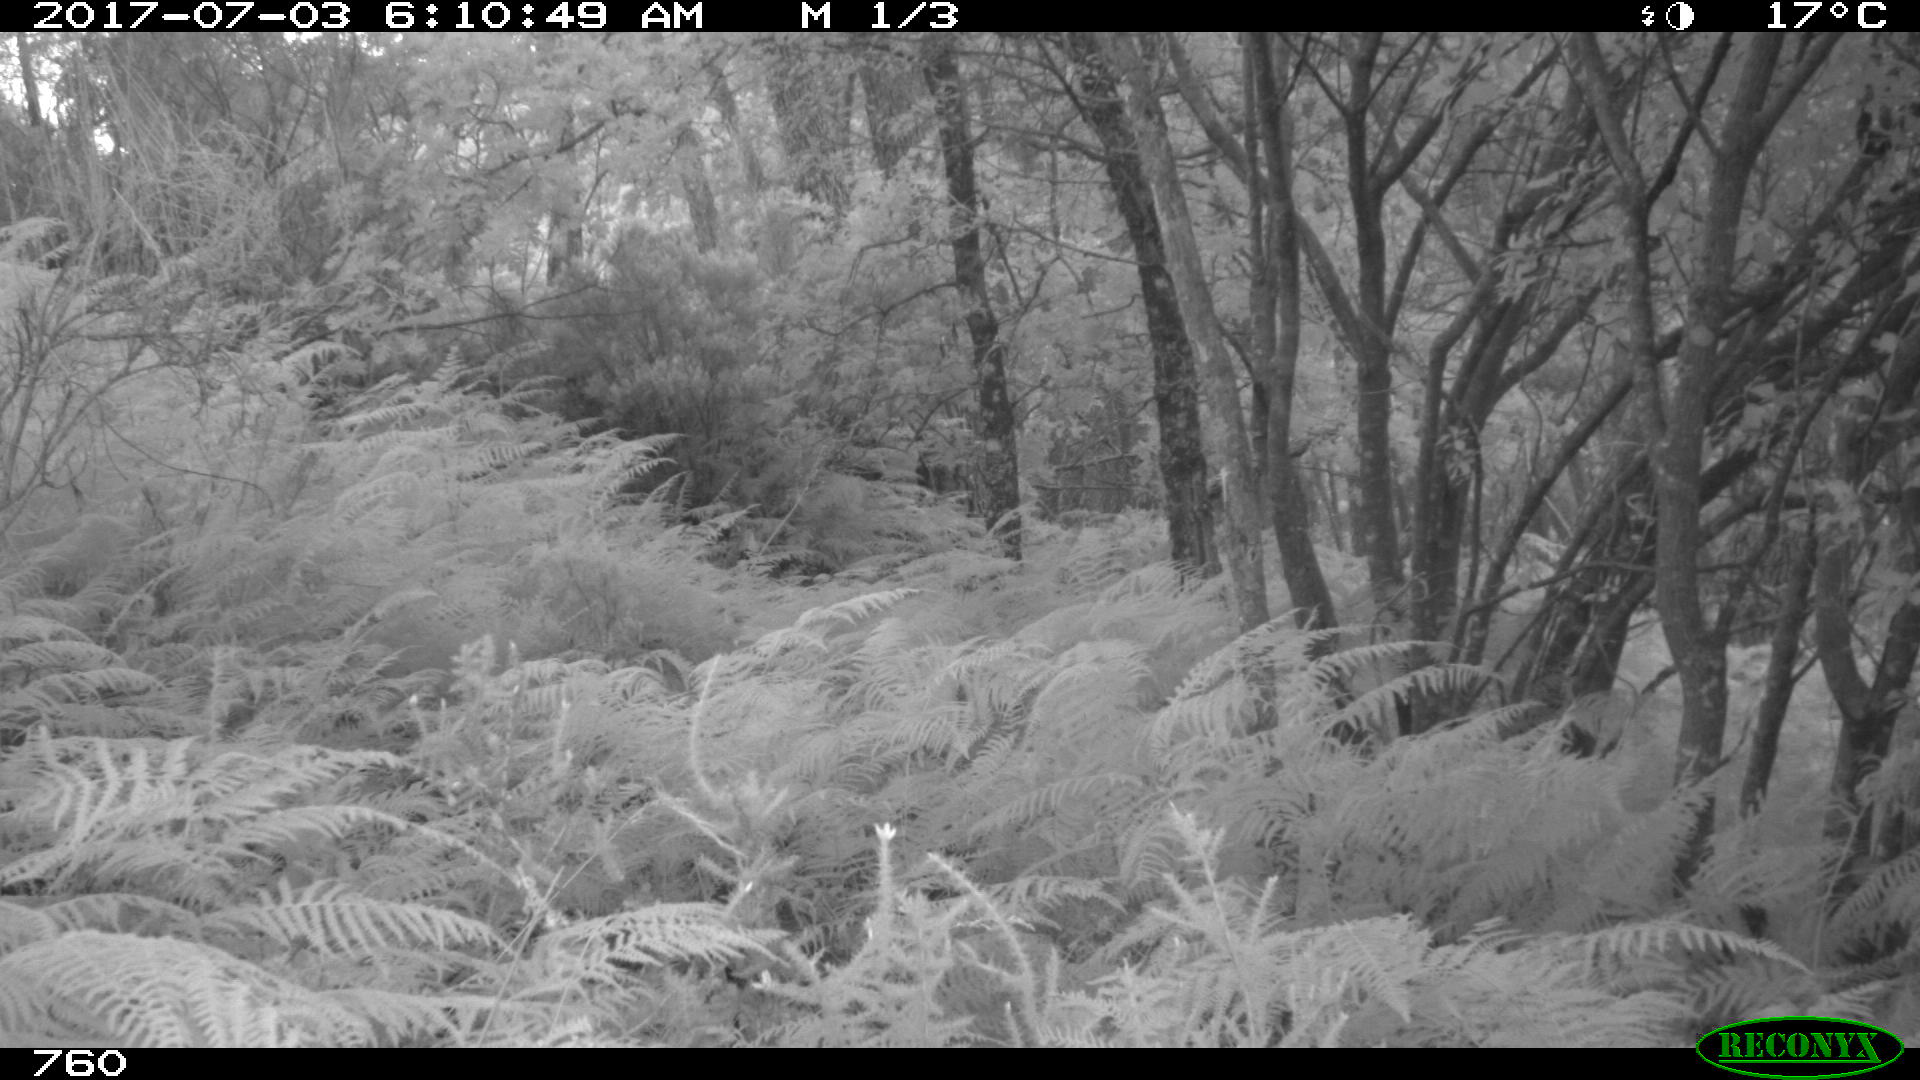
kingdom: Animalia
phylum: Chordata
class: Mammalia
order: Artiodactyla
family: Cervidae
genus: Capreolus
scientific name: Capreolus capreolus
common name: Western roe deer
